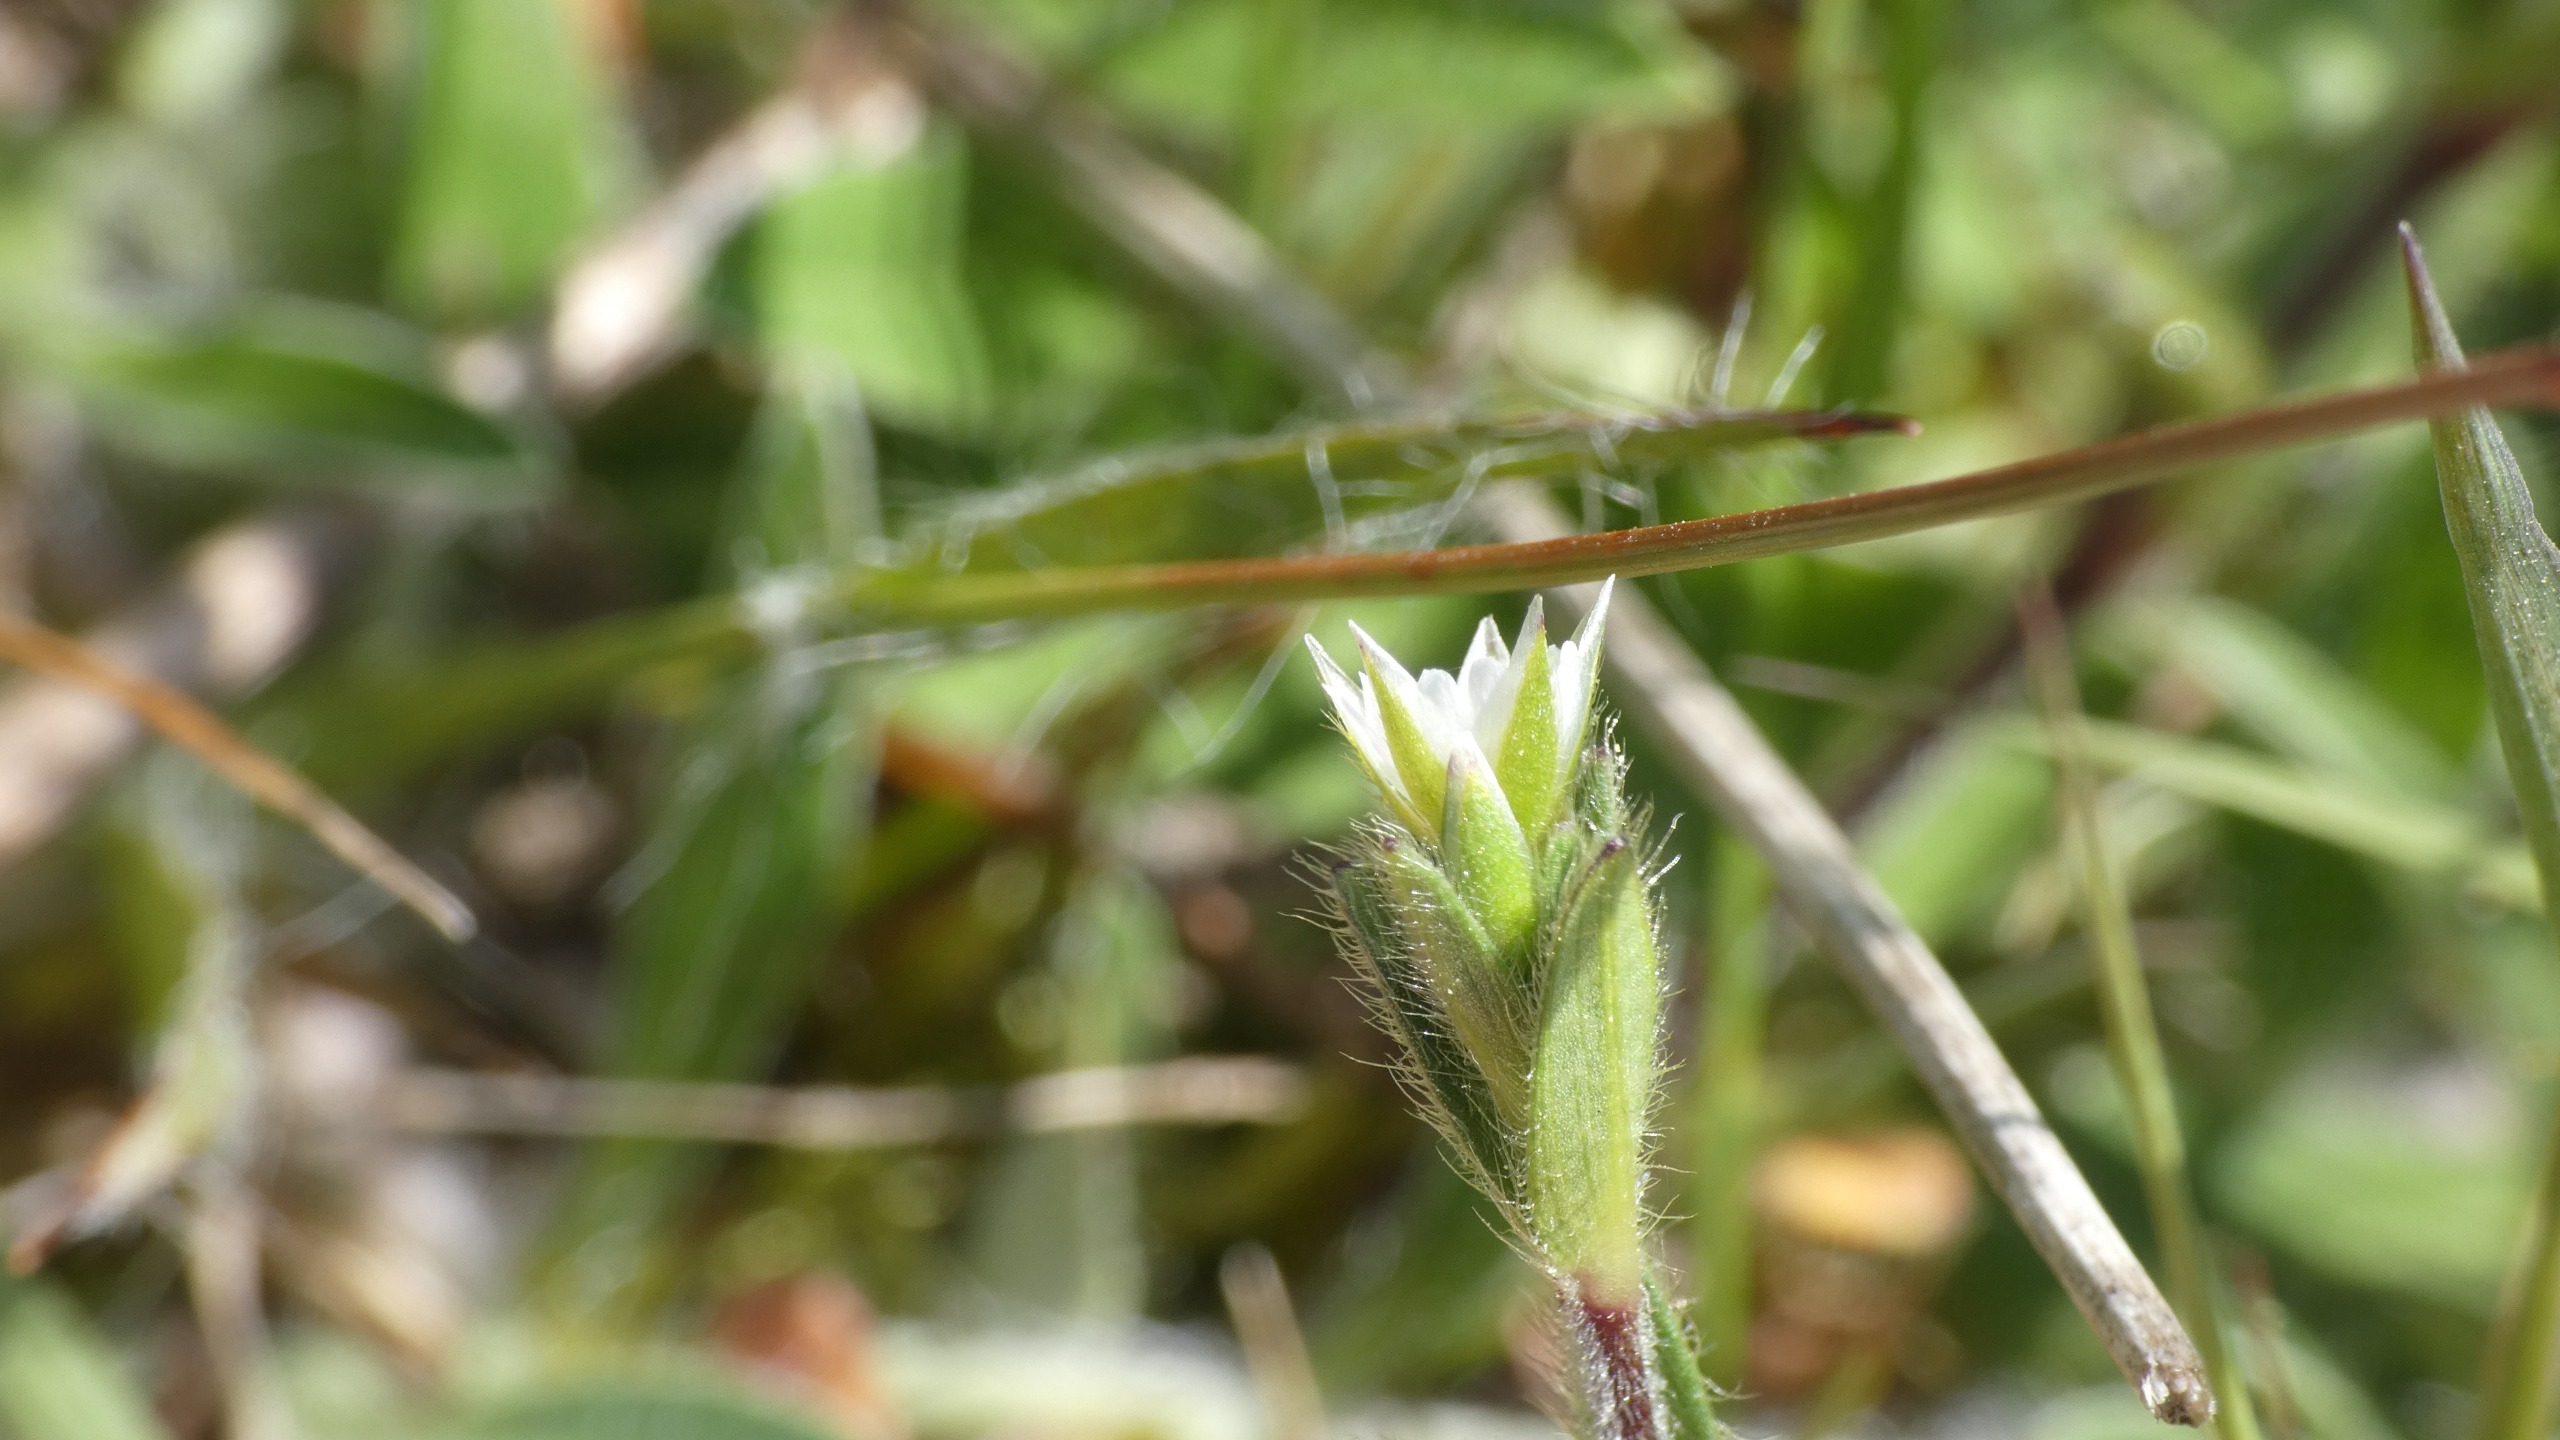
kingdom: Plantae
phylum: Tracheophyta
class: Magnoliopsida
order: Caryophyllales
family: Caryophyllaceae
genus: Cerastium
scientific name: Cerastium fontanum
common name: Almindelig hønsetarm
